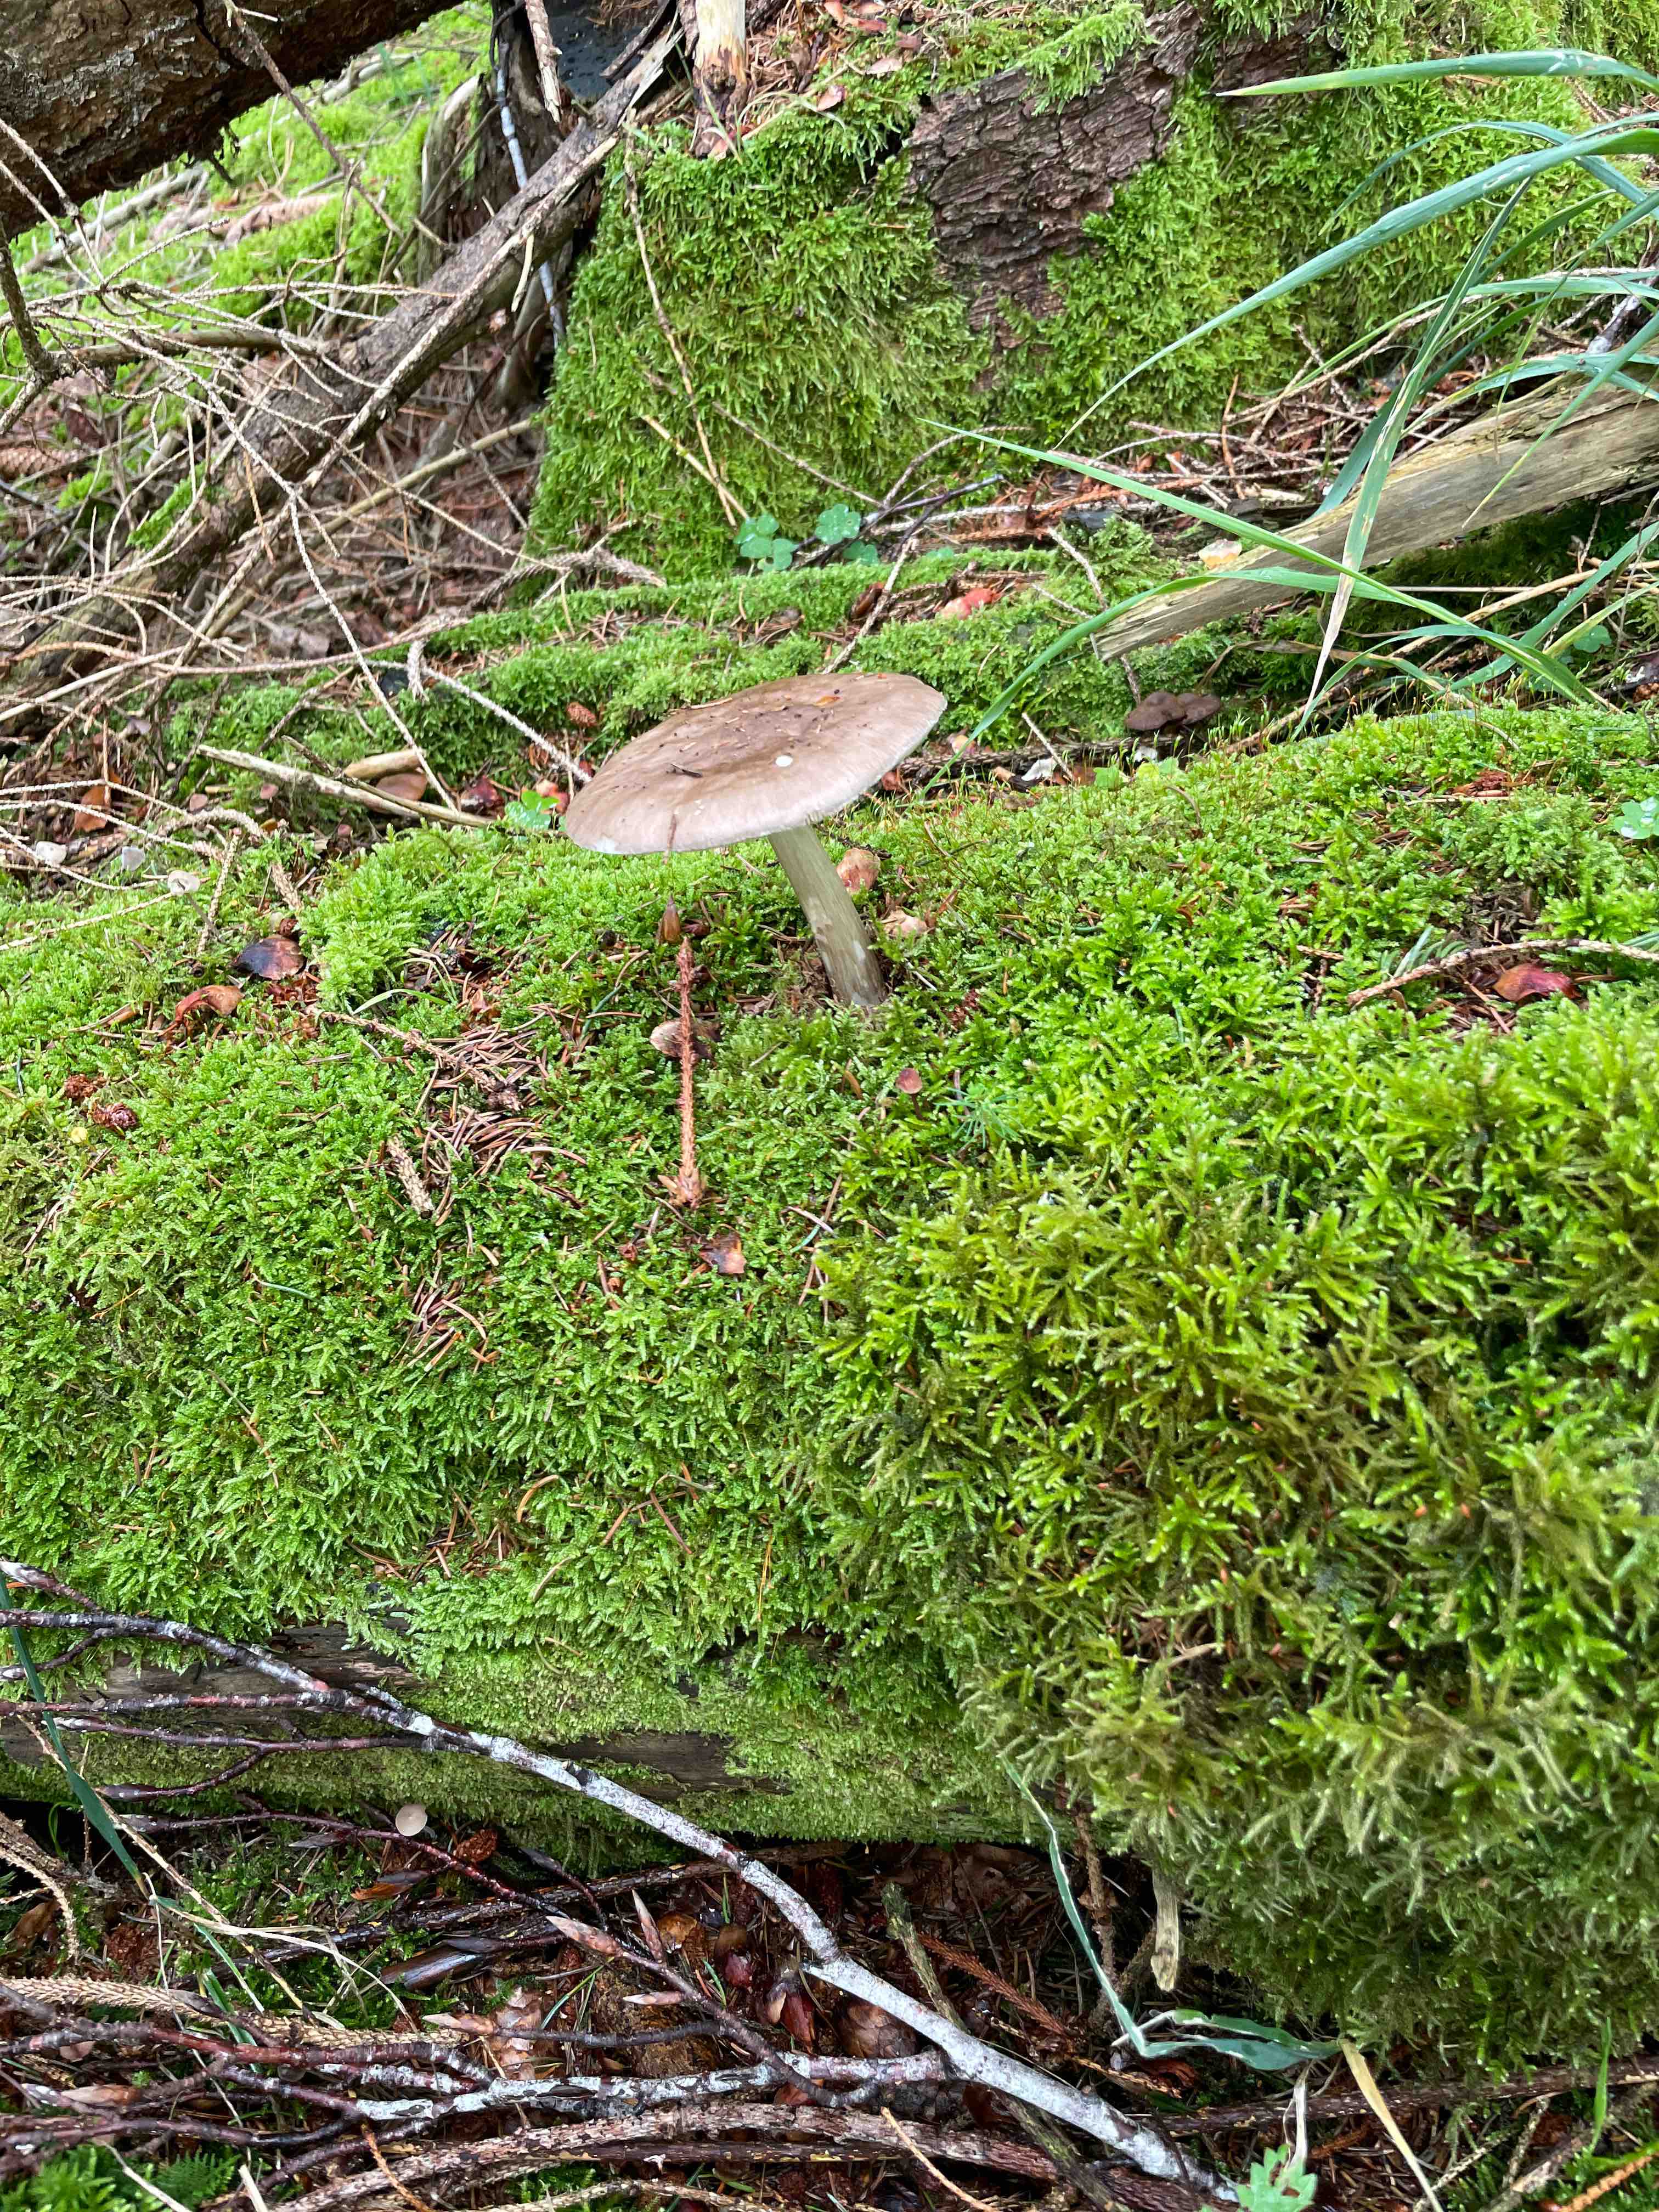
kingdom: Fungi
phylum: Basidiomycota
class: Agaricomycetes
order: Agaricales
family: Pluteaceae
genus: Pluteus
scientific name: Pluteus
